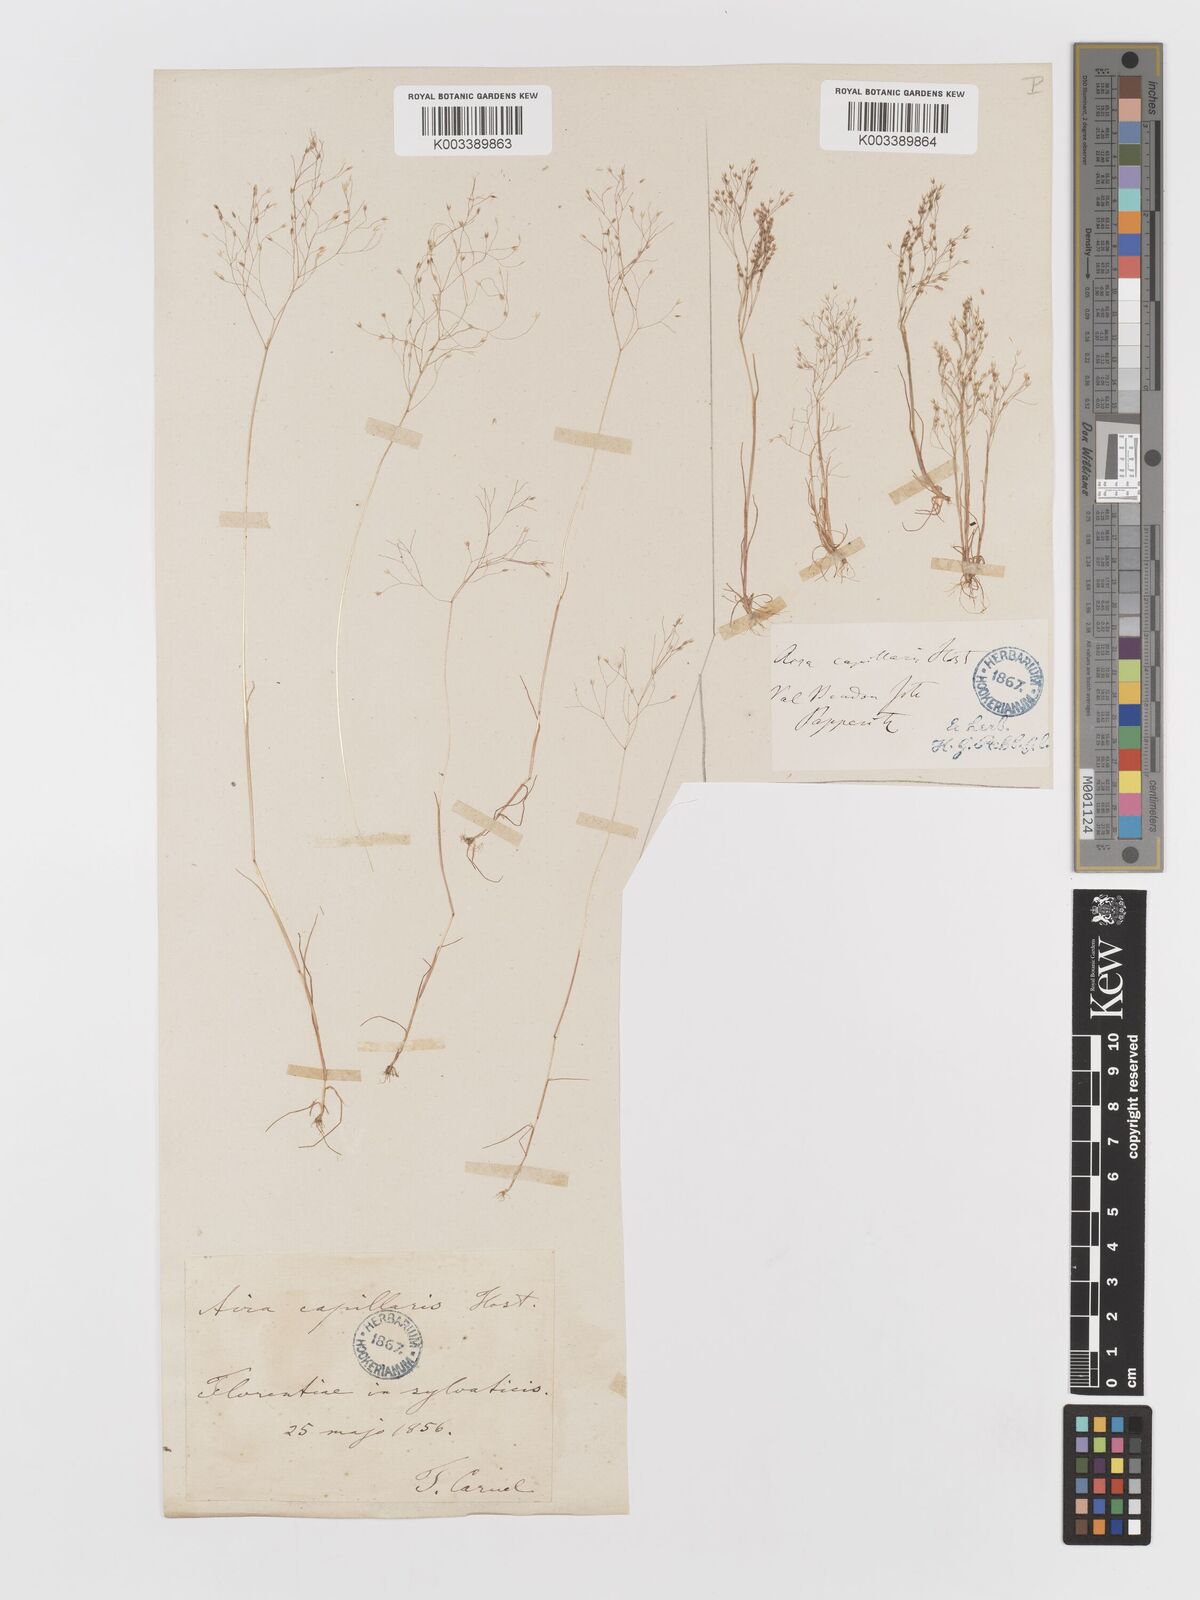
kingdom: Plantae
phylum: Tracheophyta
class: Liliopsida
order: Poales
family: Poaceae
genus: Aira
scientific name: Aira elegans
